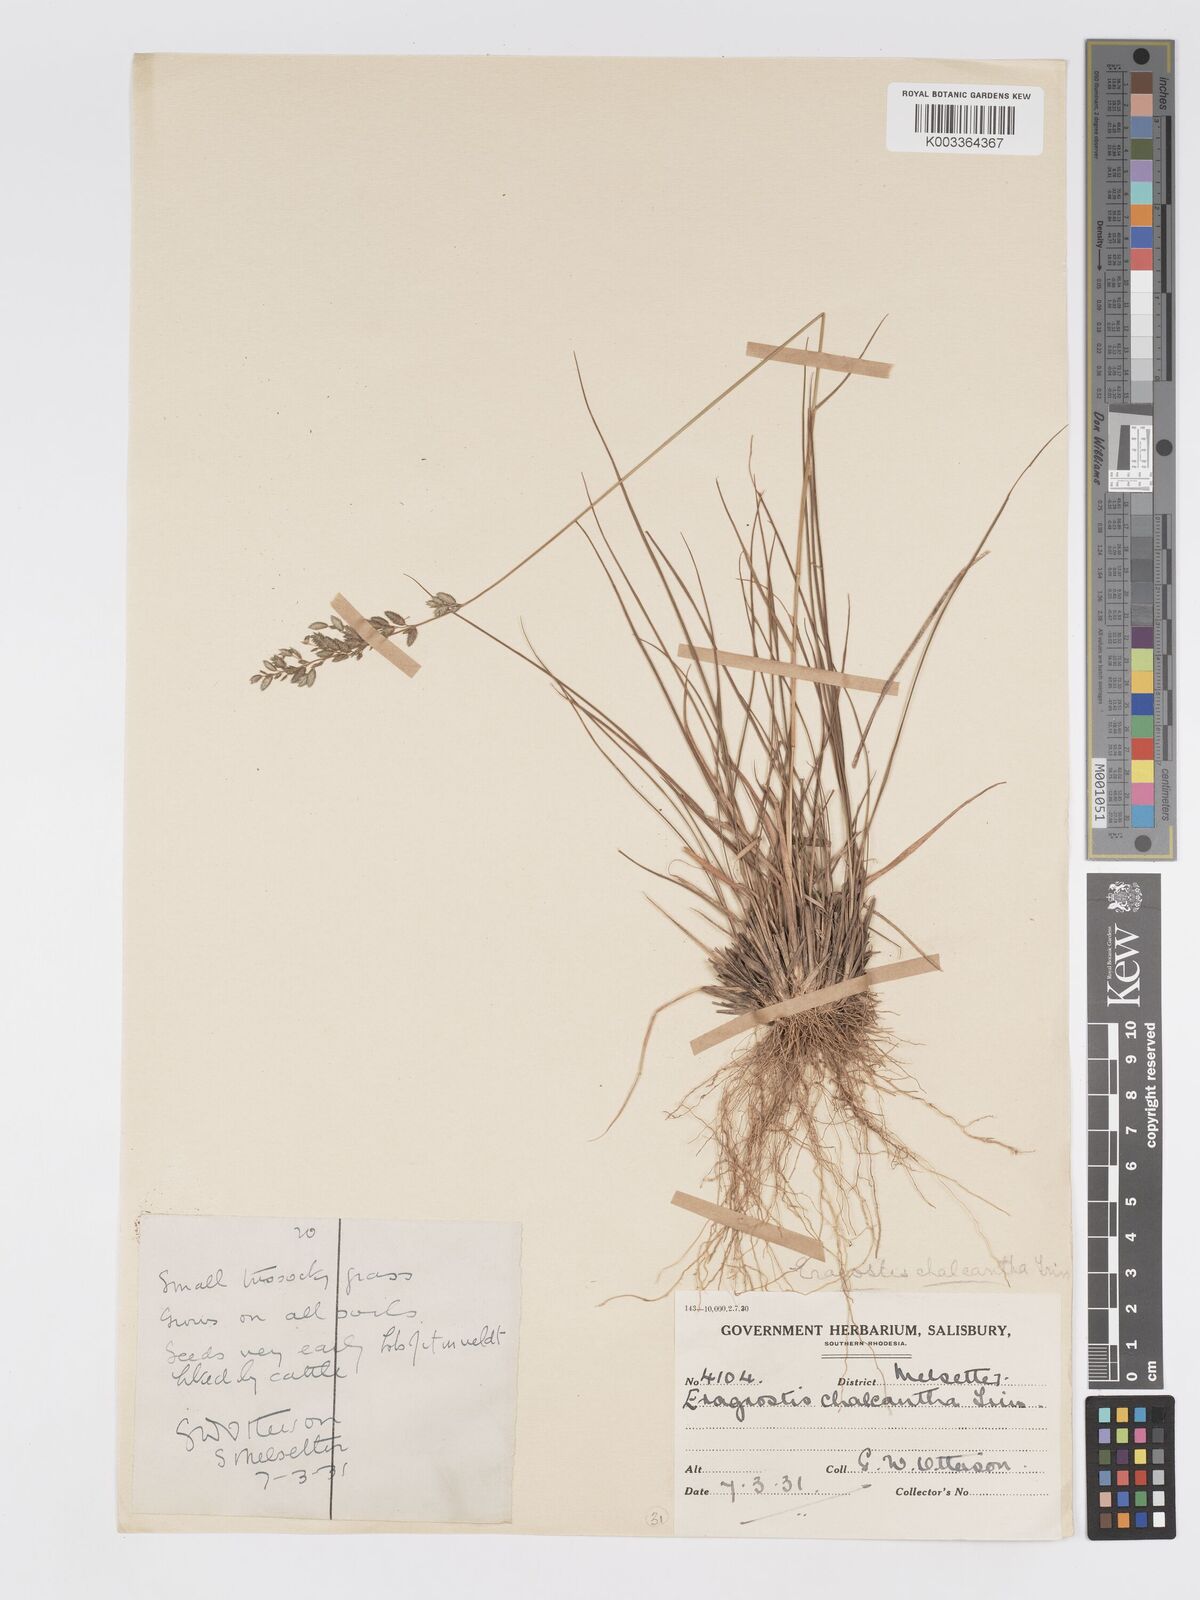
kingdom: Plantae
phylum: Tracheophyta
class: Liliopsida
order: Poales
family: Poaceae
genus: Eragrostis
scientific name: Eragrostis racemosa
